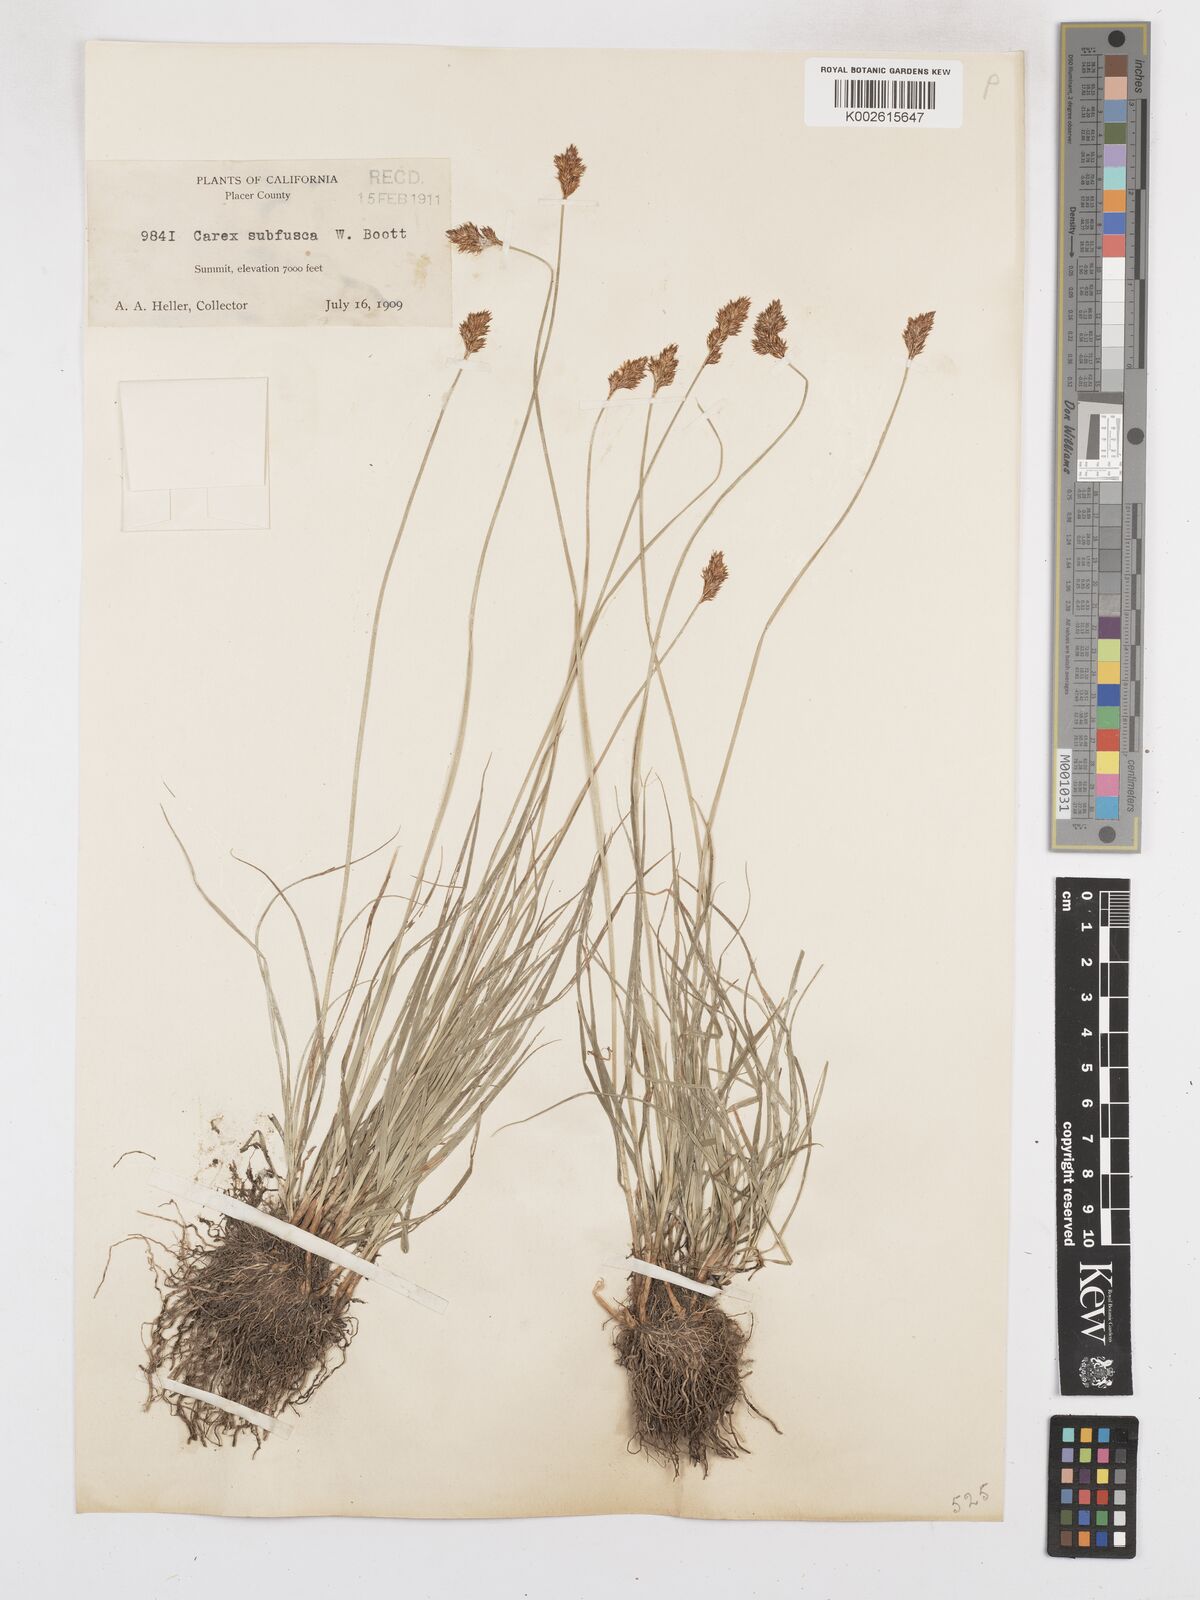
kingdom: Plantae
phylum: Tracheophyta
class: Liliopsida
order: Poales
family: Cyperaceae
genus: Carex
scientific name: Carex subfusca
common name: Brown sedge
